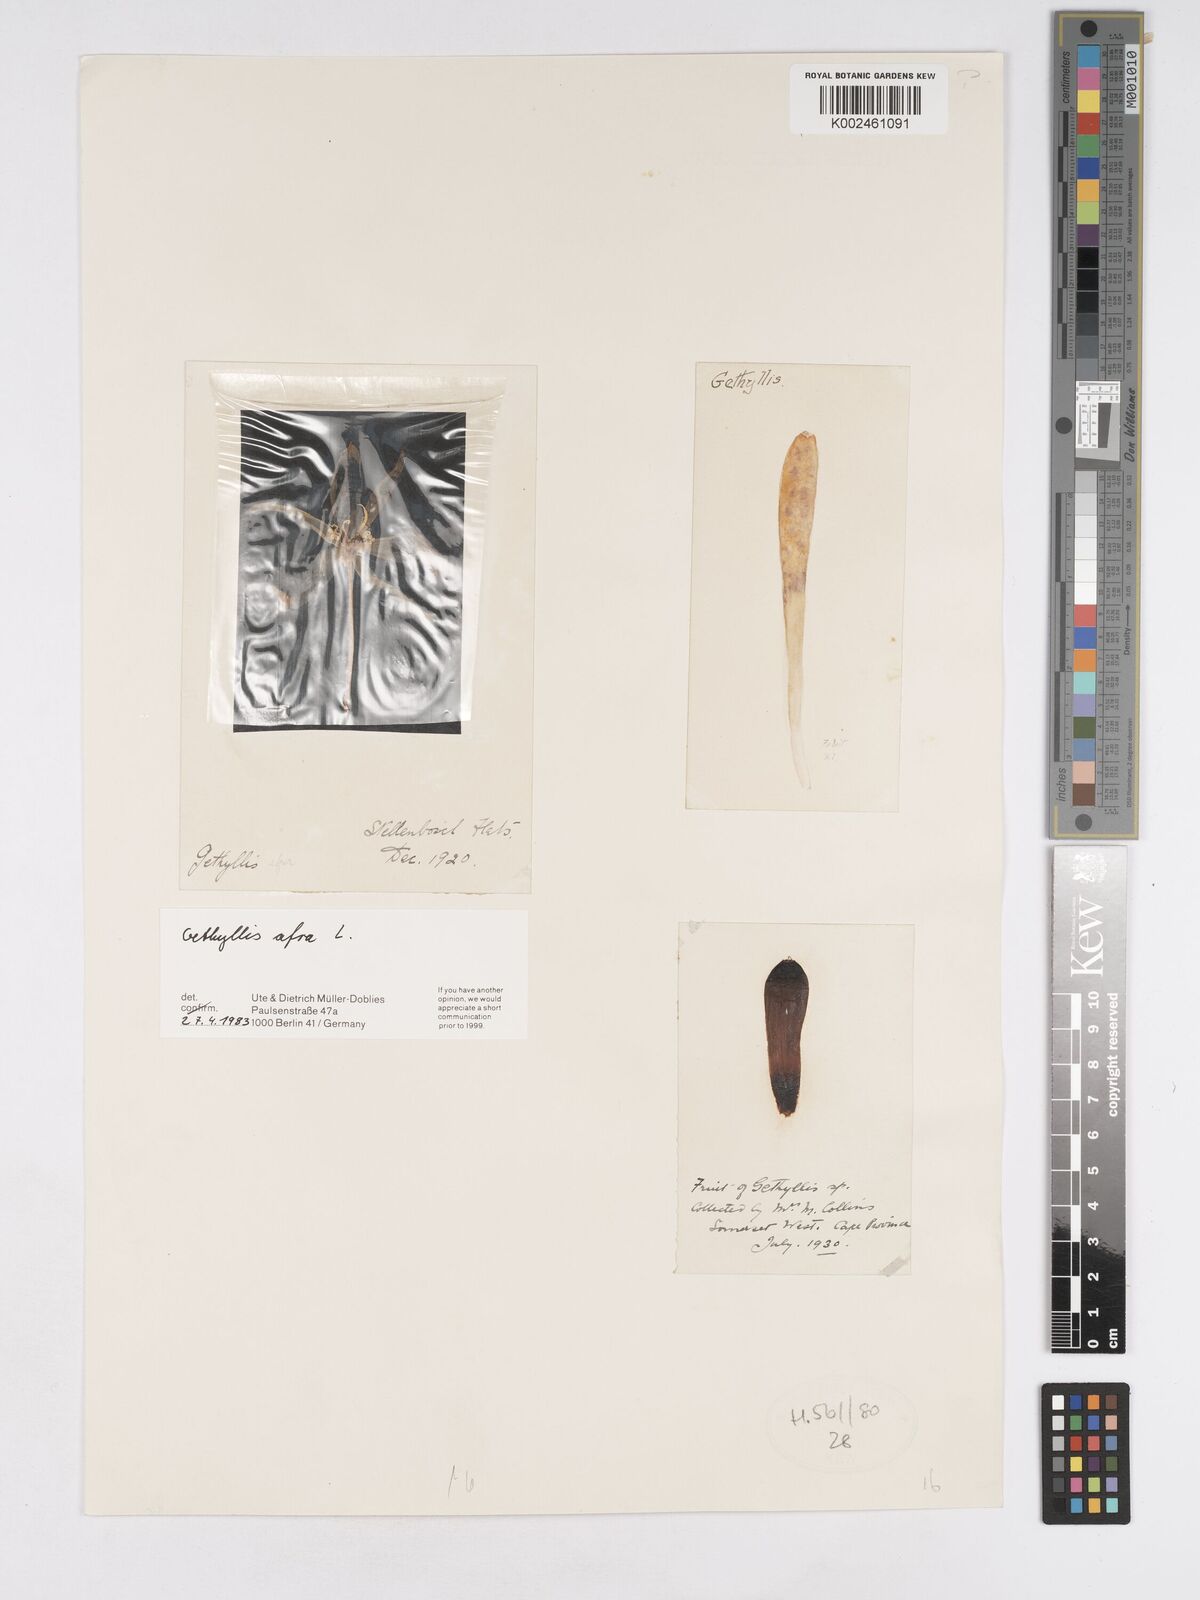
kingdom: Plantae
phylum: Tracheophyta
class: Liliopsida
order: Asparagales
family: Amaryllidaceae
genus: Gethyllis
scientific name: Gethyllis afra
